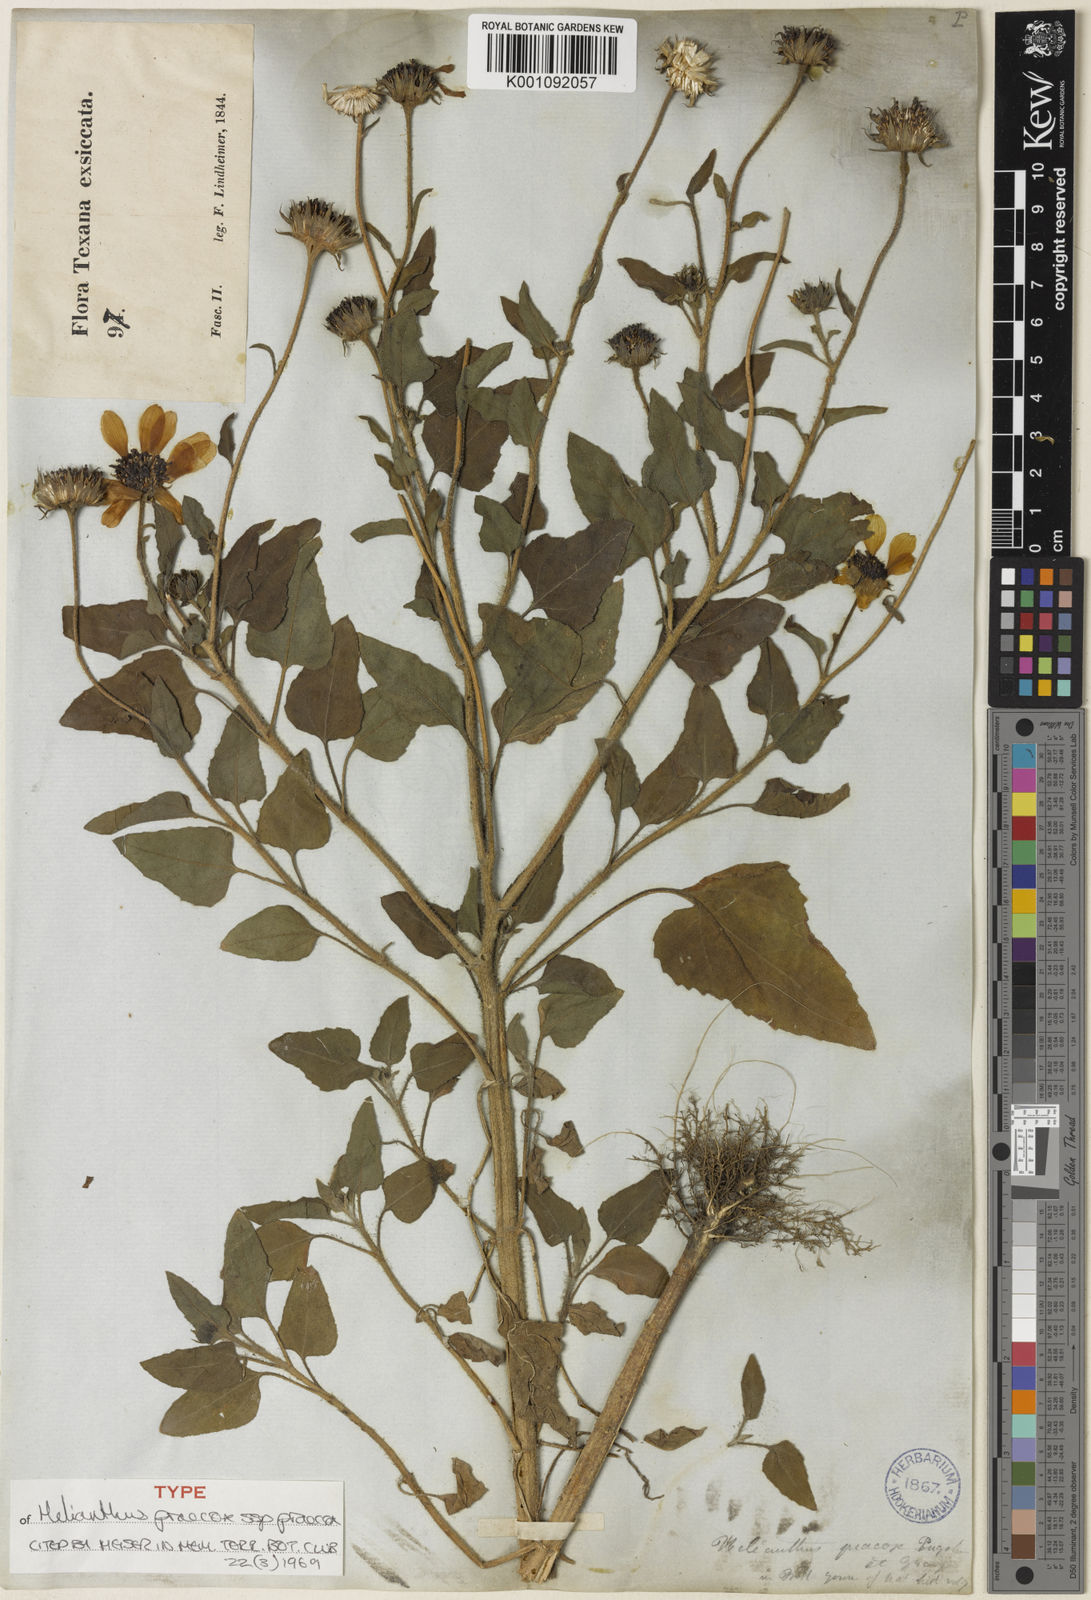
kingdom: Plantae
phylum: Tracheophyta
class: Magnoliopsida
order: Asterales
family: Asteraceae
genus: Helianthus
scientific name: Helianthus praecox
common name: Texas sunflower
